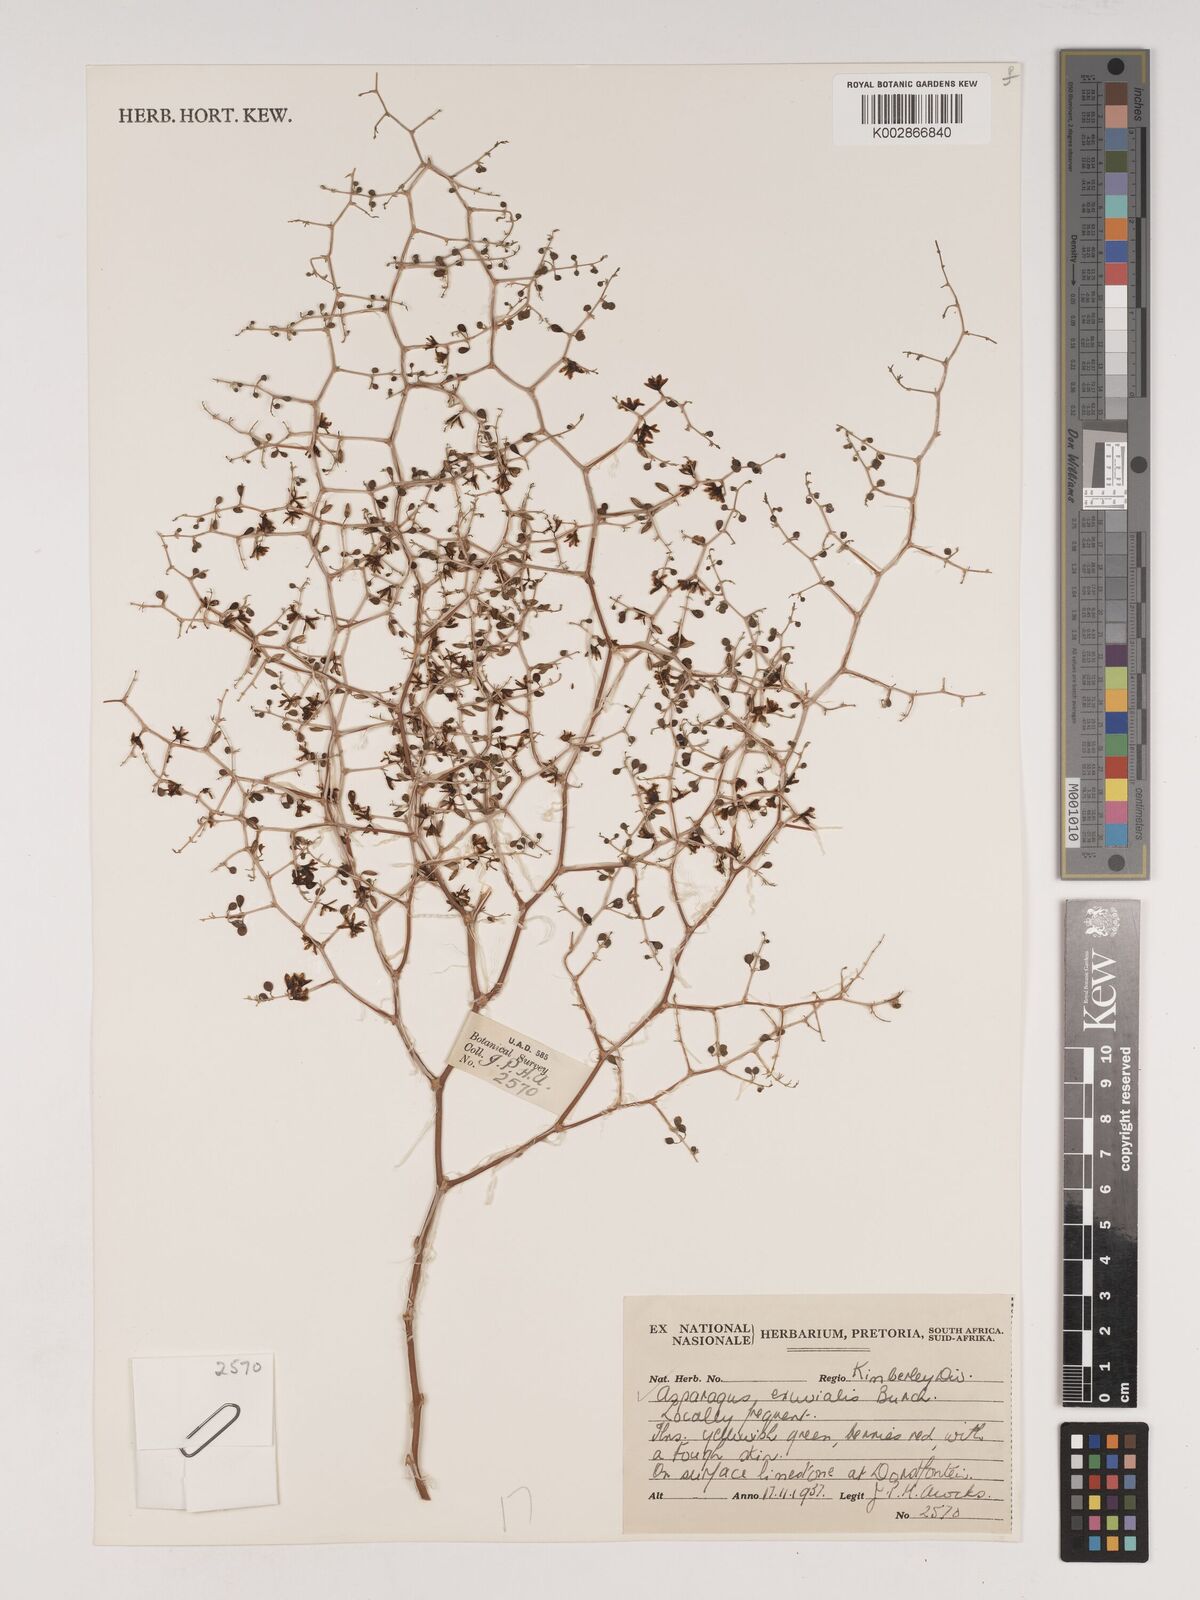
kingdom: Plantae
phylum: Tracheophyta
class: Liliopsida
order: Asparagales
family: Asparagaceae
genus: Asparagus
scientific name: Asparagus exuvialis
